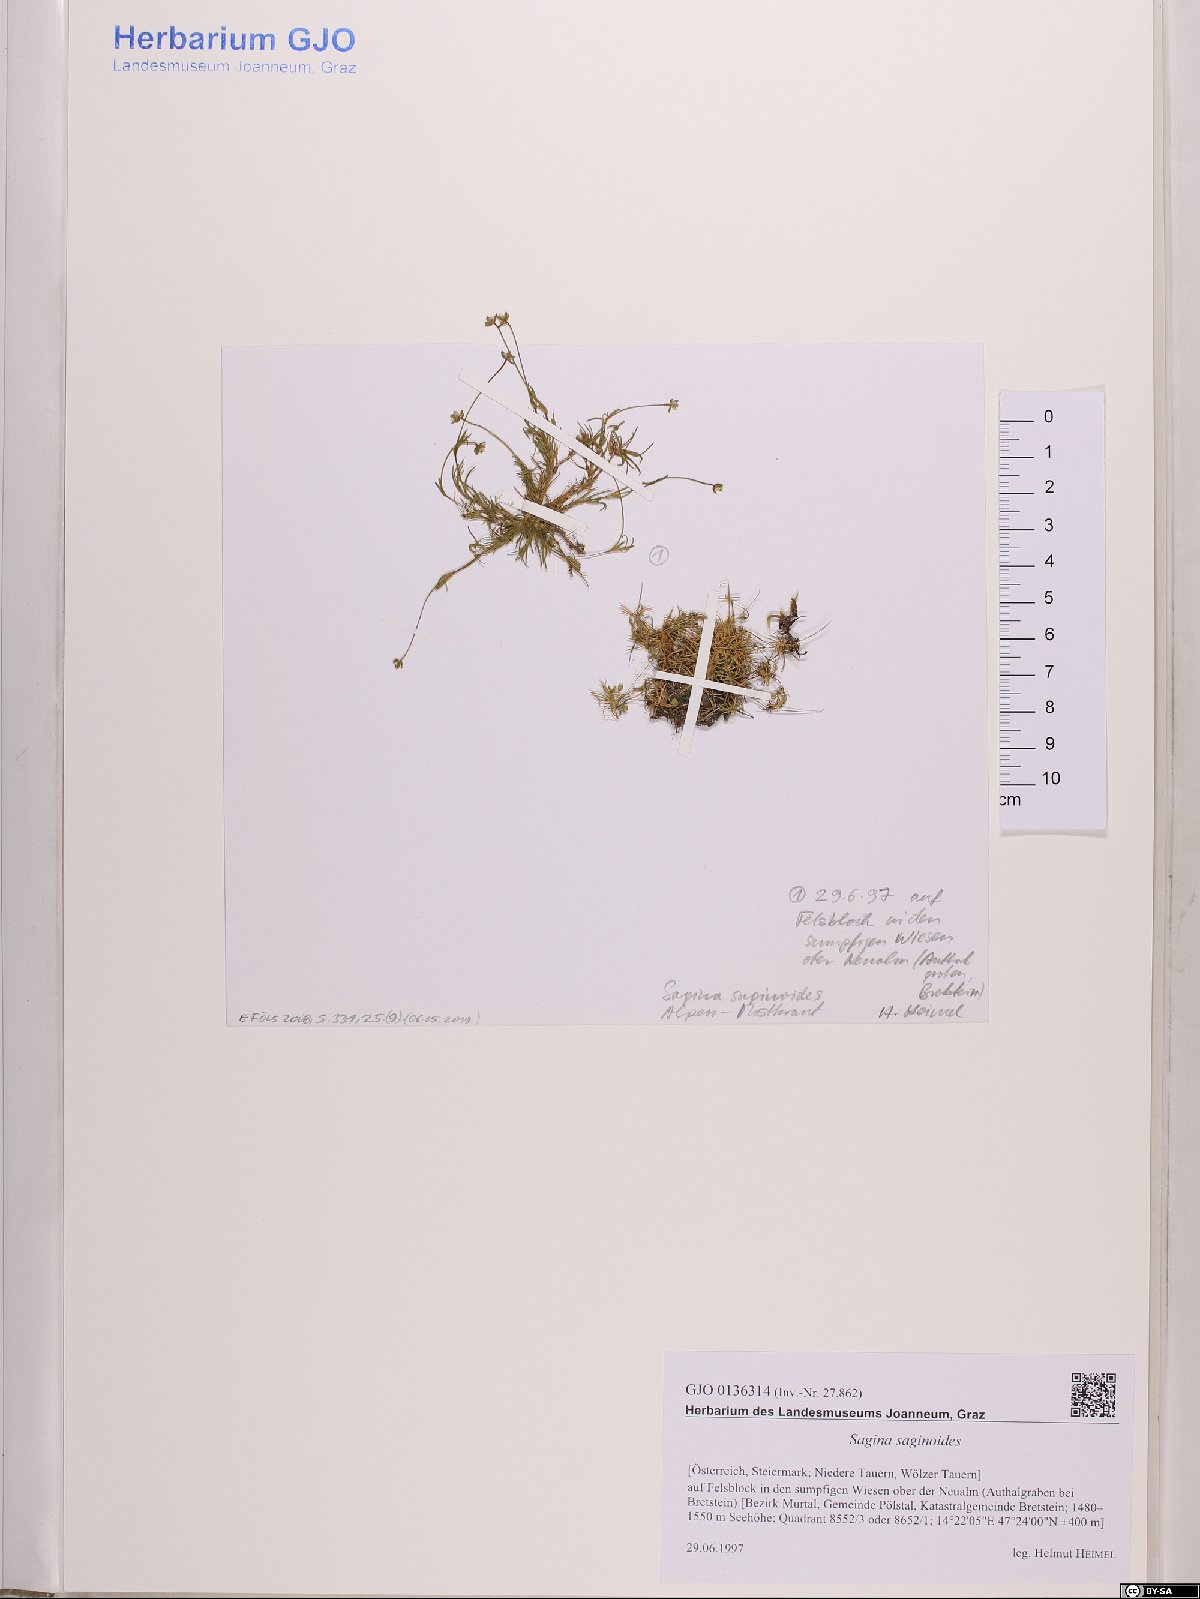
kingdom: Plantae
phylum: Tracheophyta
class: Magnoliopsida
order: Caryophyllales
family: Caryophyllaceae
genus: Sagina
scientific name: Sagina saginoides
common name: Alpine pearlwort
